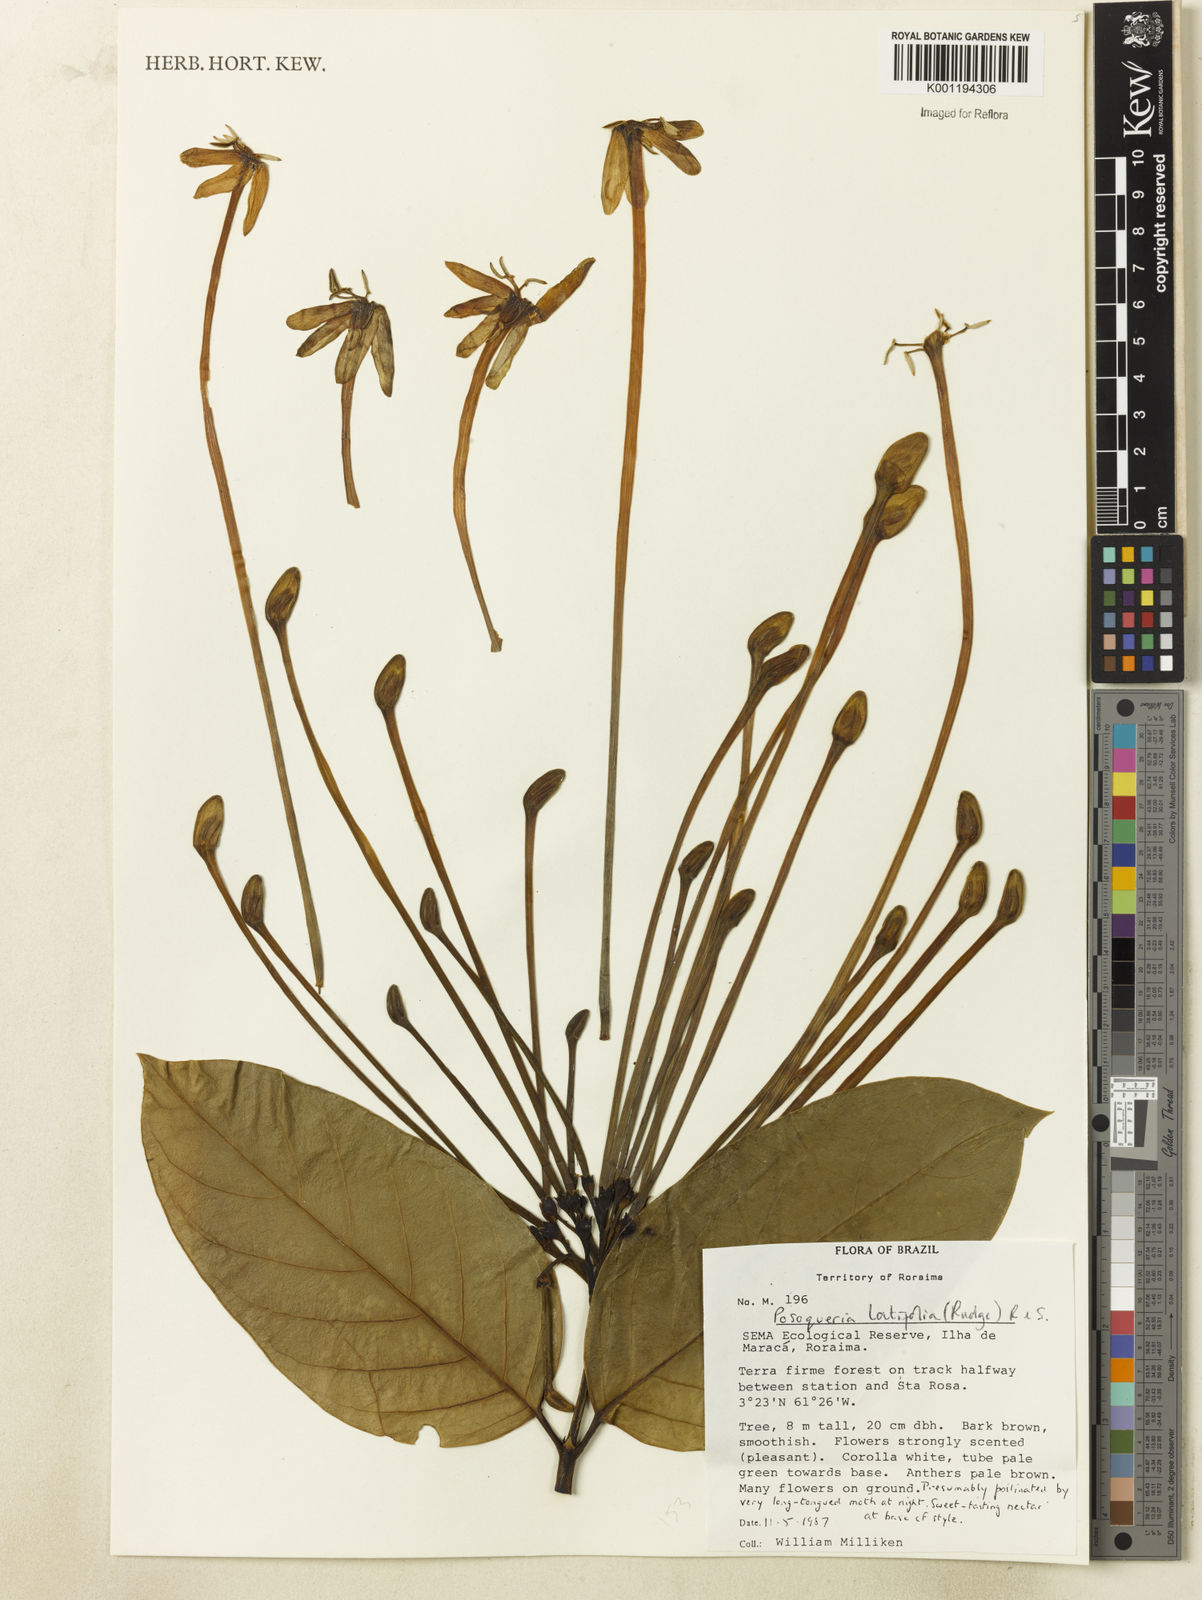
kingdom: Plantae
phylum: Tracheophyta
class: Magnoliopsida
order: Gentianales
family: Rubiaceae
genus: Posoqueria
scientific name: Posoqueria latifolia
